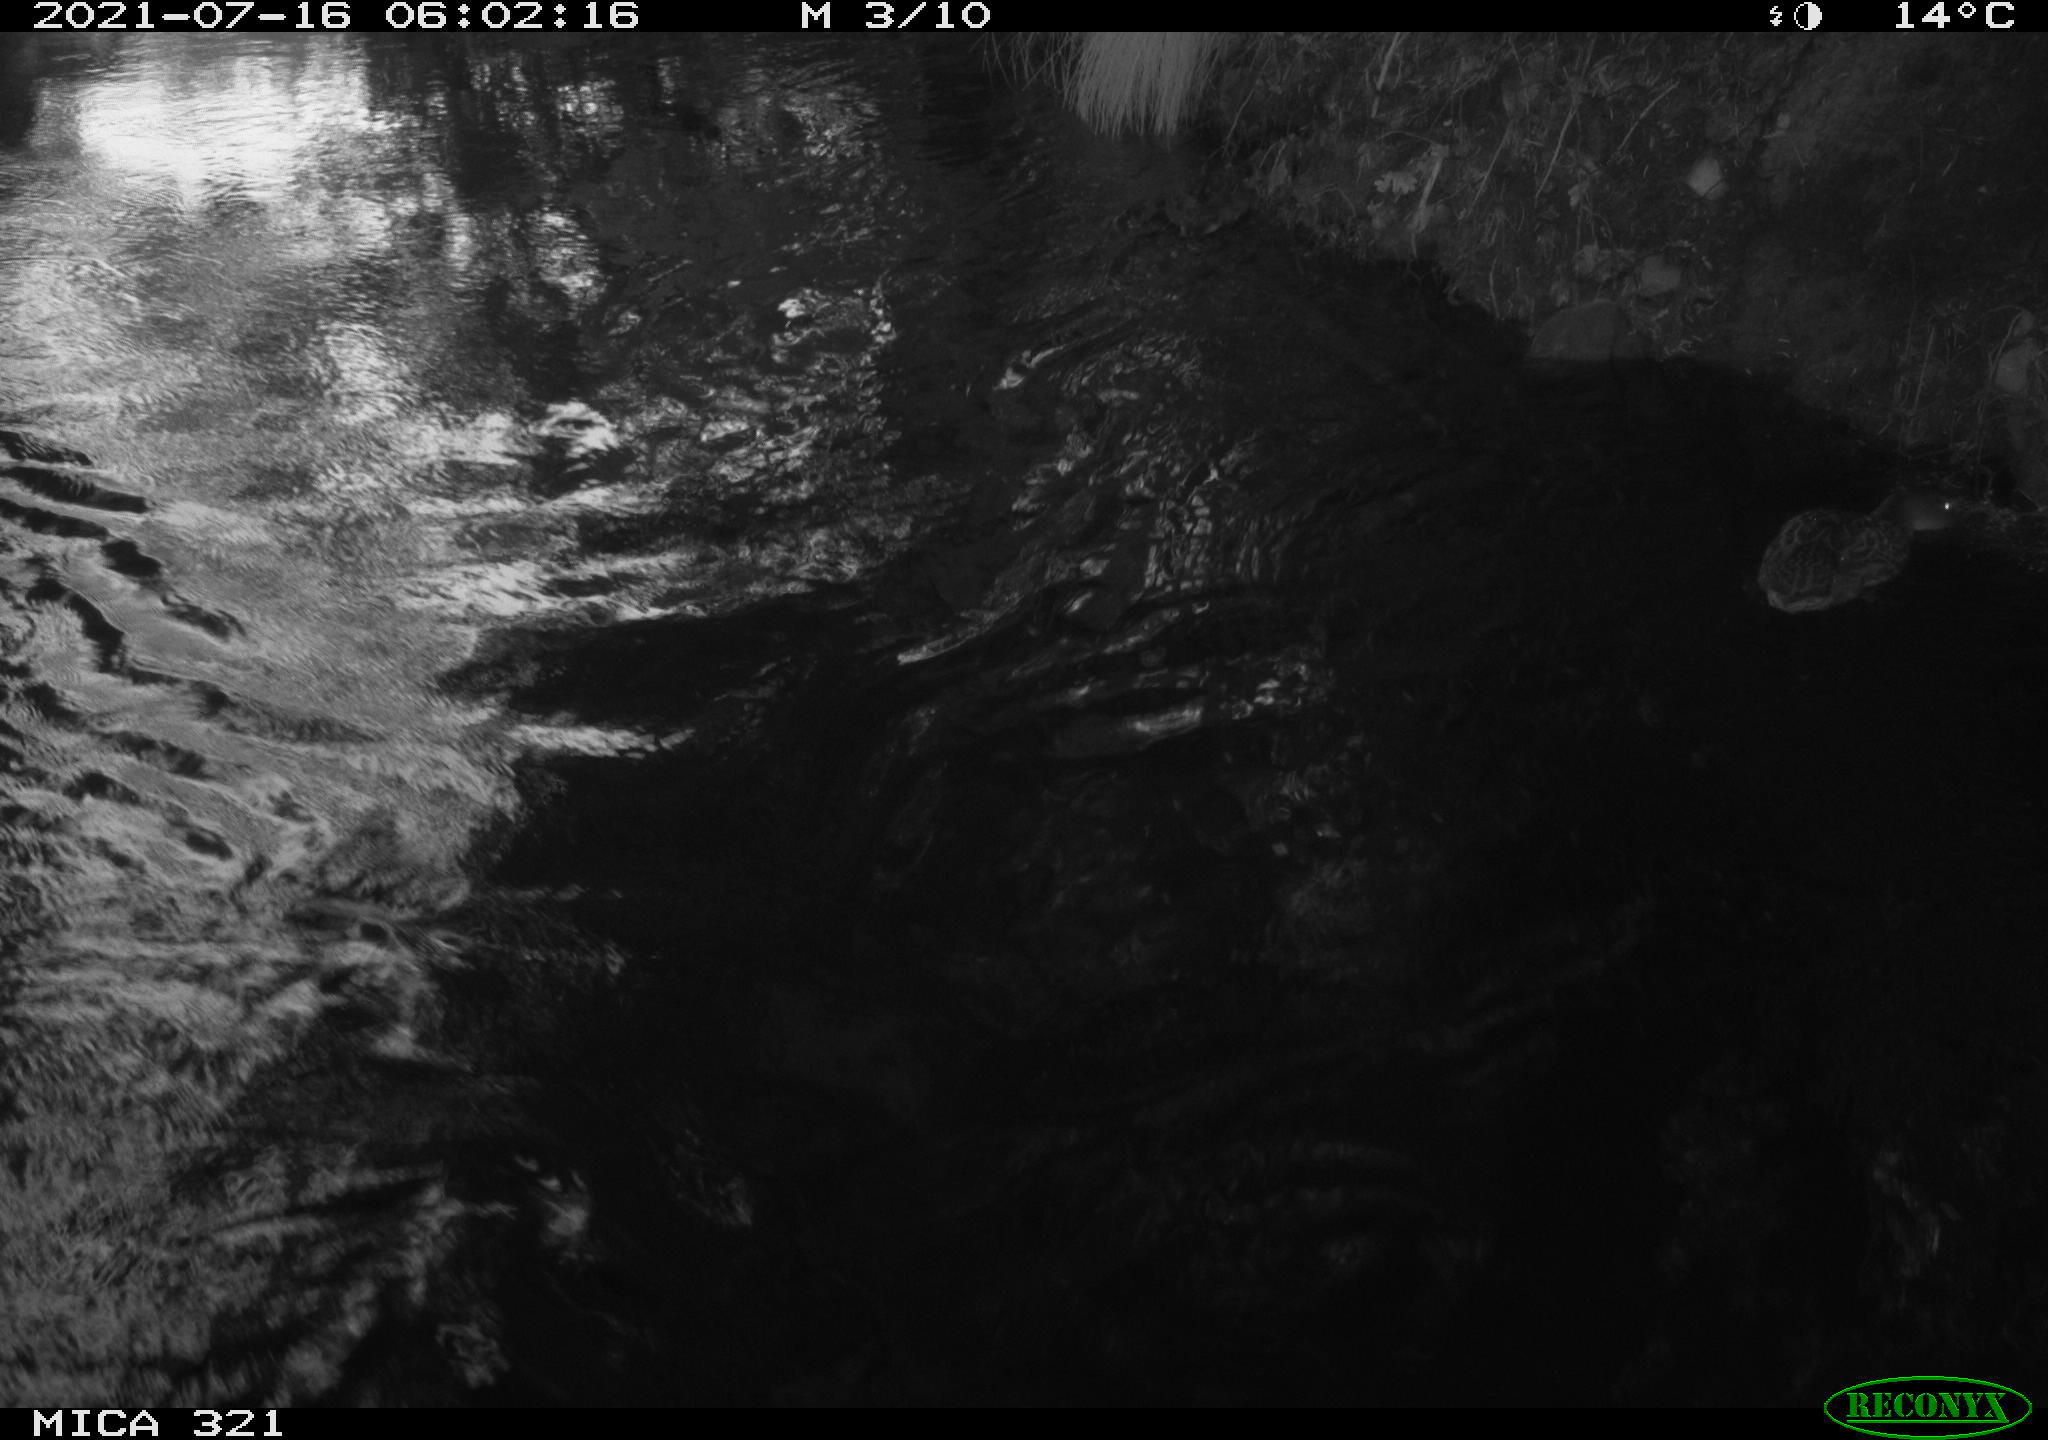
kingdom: Animalia
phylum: Chordata
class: Aves
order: Anseriformes
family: Anatidae
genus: Anas
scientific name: Anas platyrhynchos
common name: Mallard
